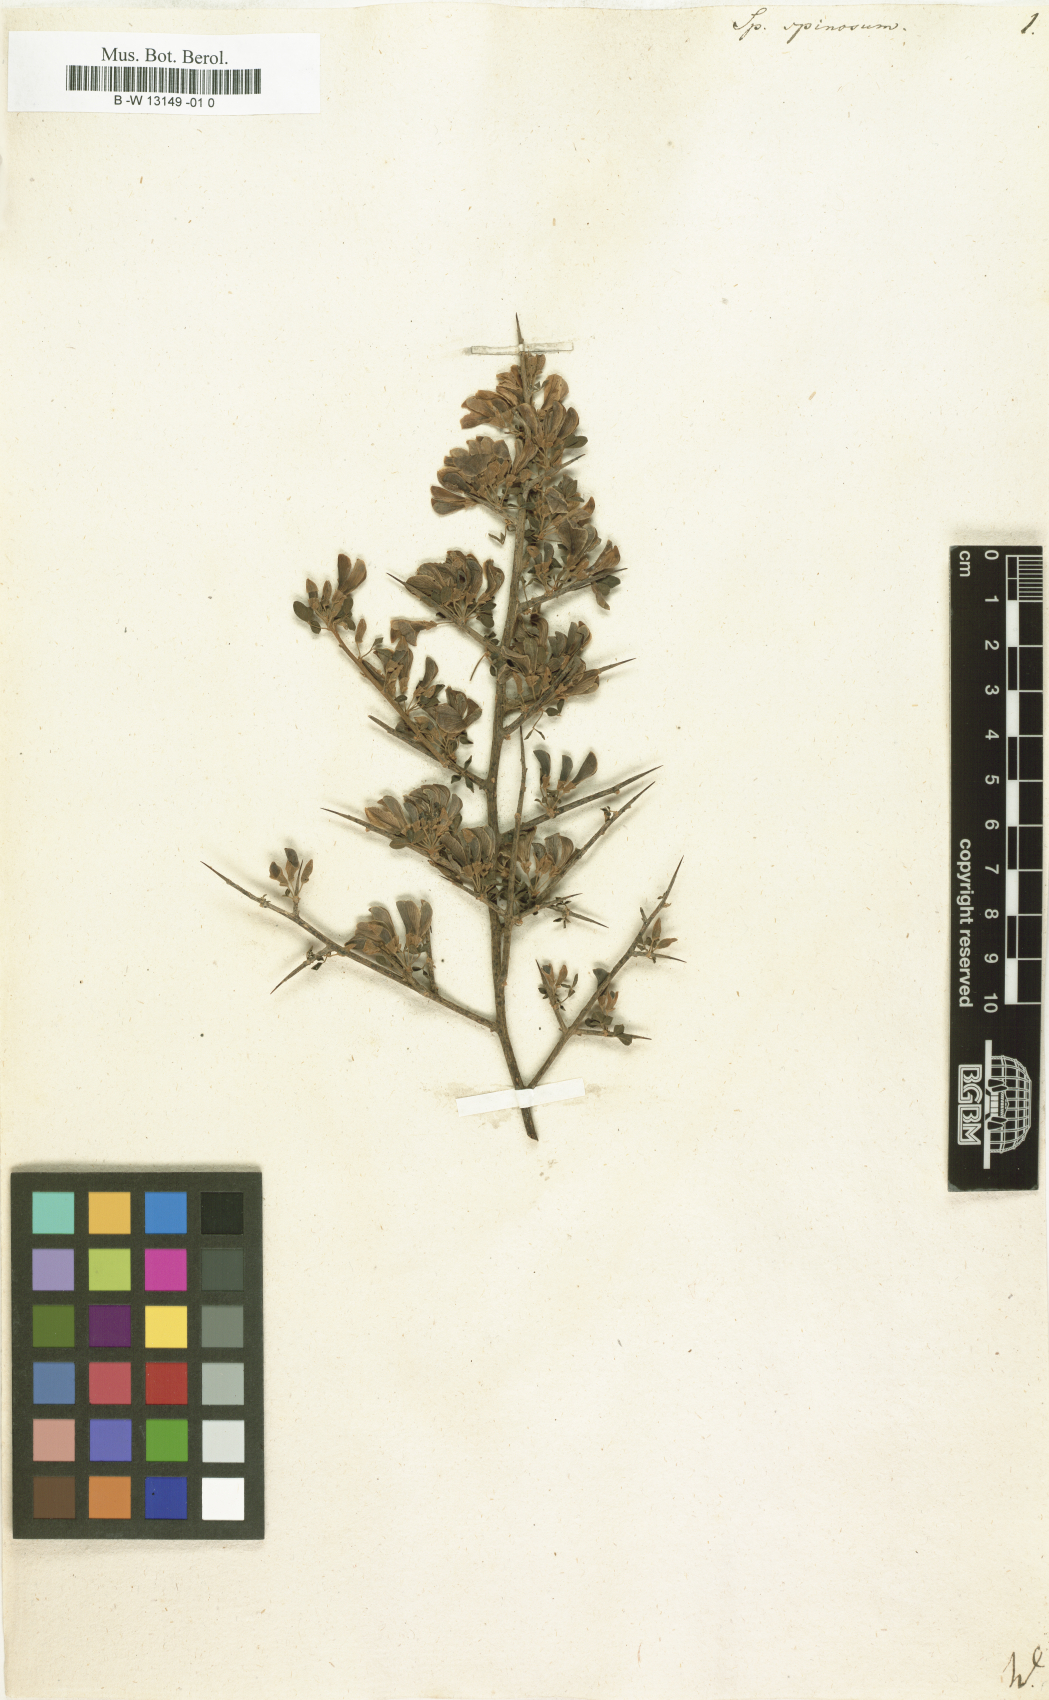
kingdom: Plantae
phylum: Tracheophyta
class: Magnoliopsida
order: Fabales
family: Fabaceae
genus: Spartium
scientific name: Spartium spinosum
